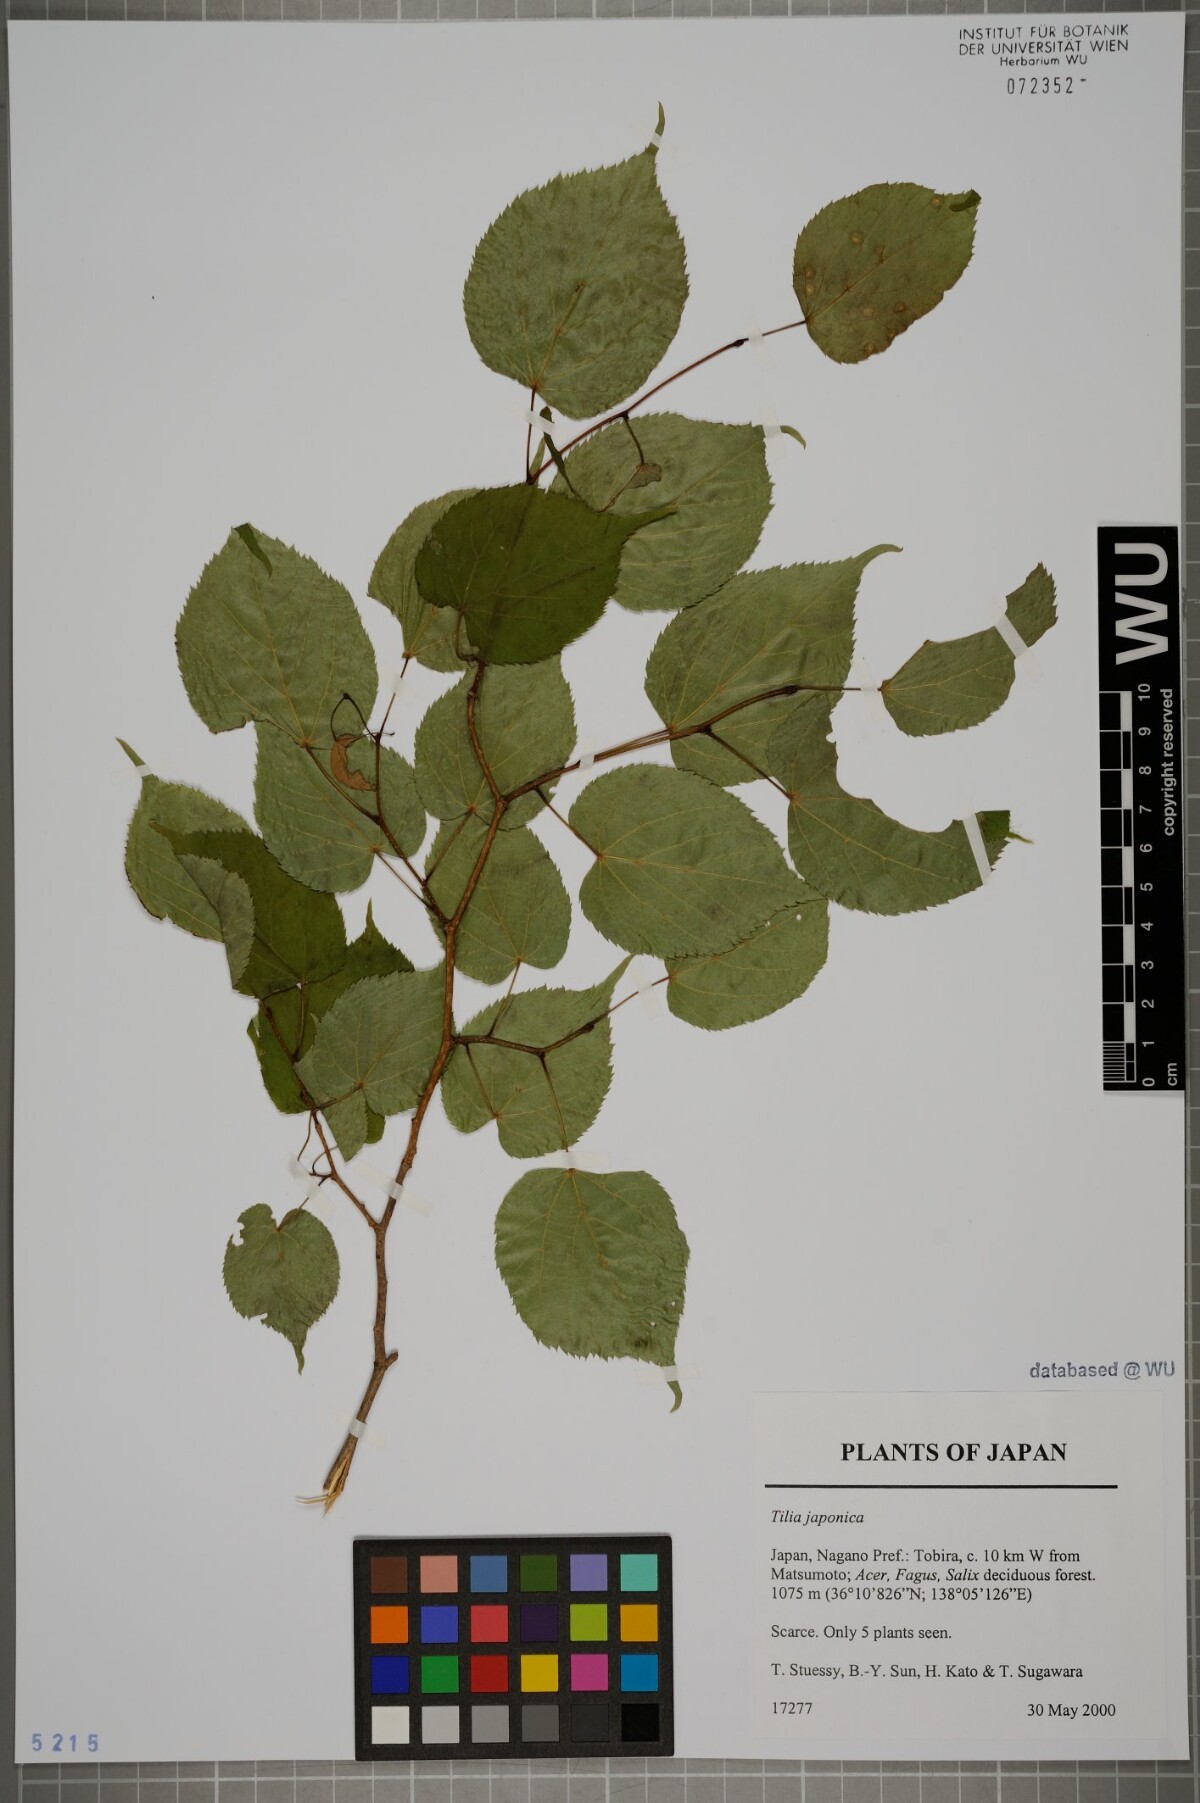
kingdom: Plantae
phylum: Tracheophyta
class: Magnoliopsida
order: Malvales
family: Malvaceae
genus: Tilia
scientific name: Tilia japonica
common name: Japanese lime
